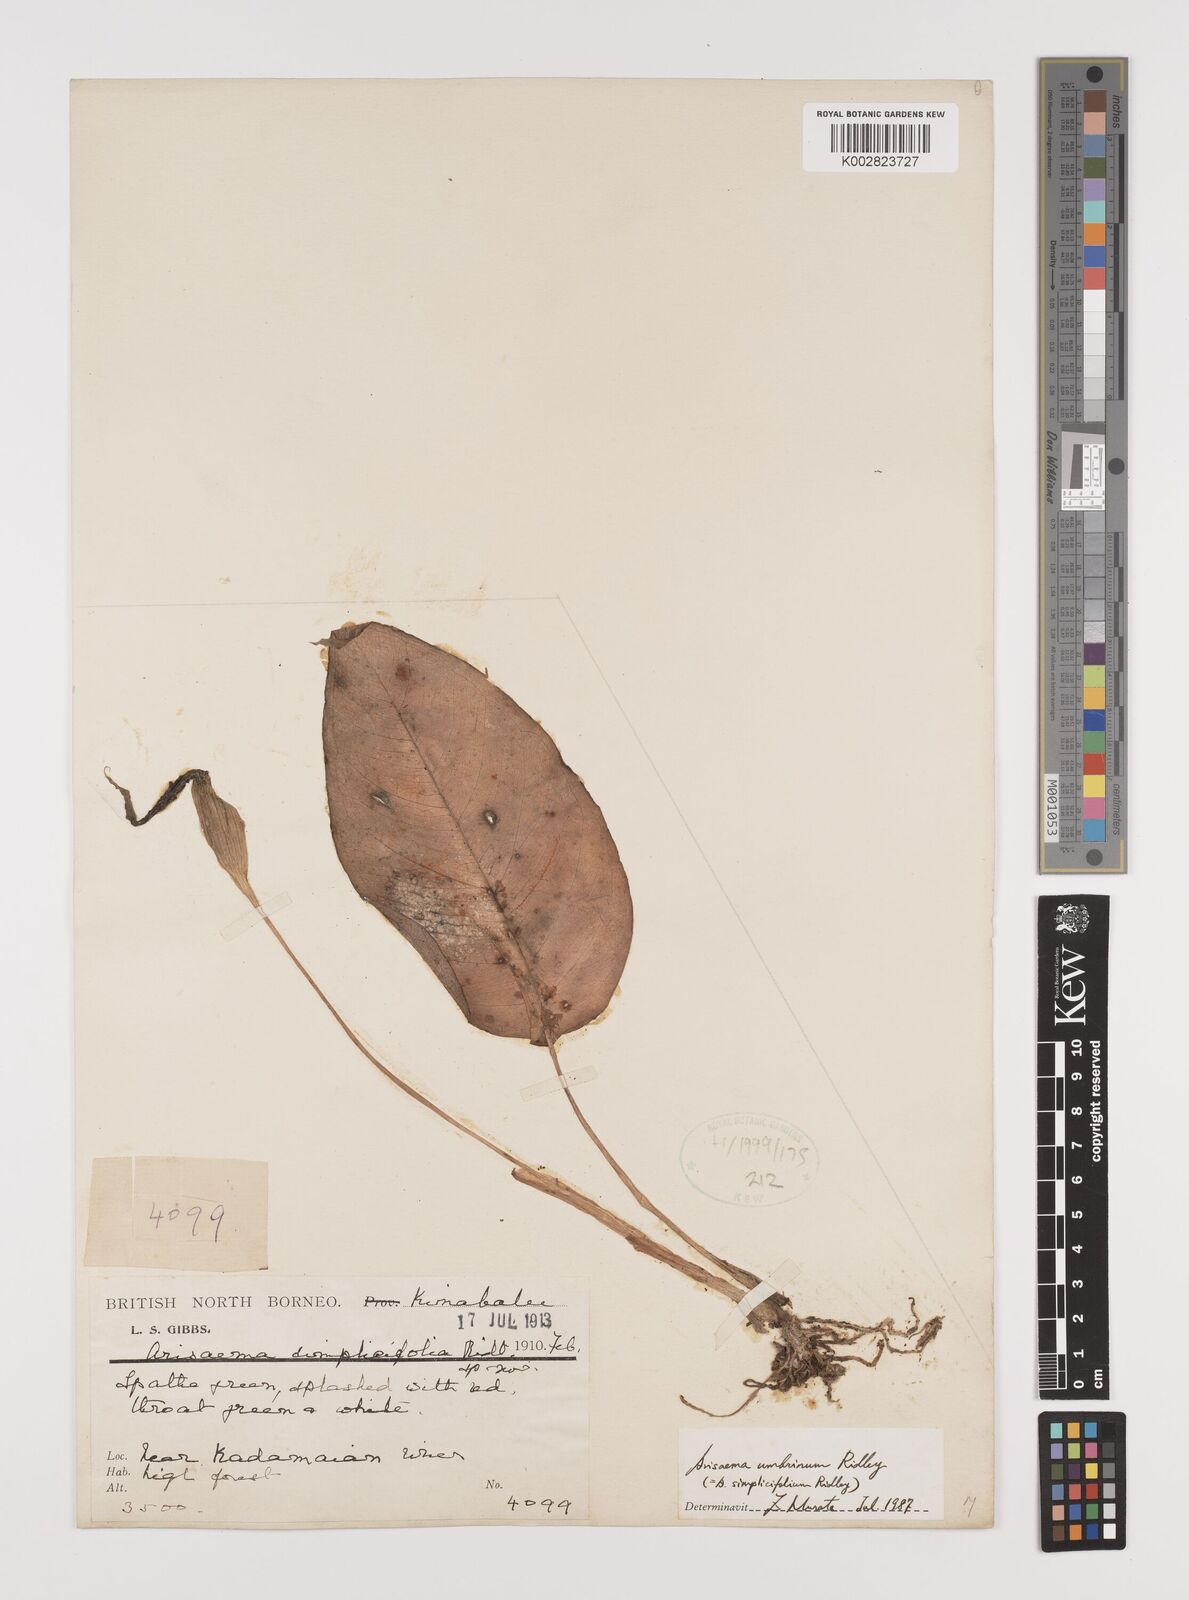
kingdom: Plantae
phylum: Tracheophyta
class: Liliopsida
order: Alismatales
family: Araceae
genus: Arisaema
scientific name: Arisaema umbrinum
